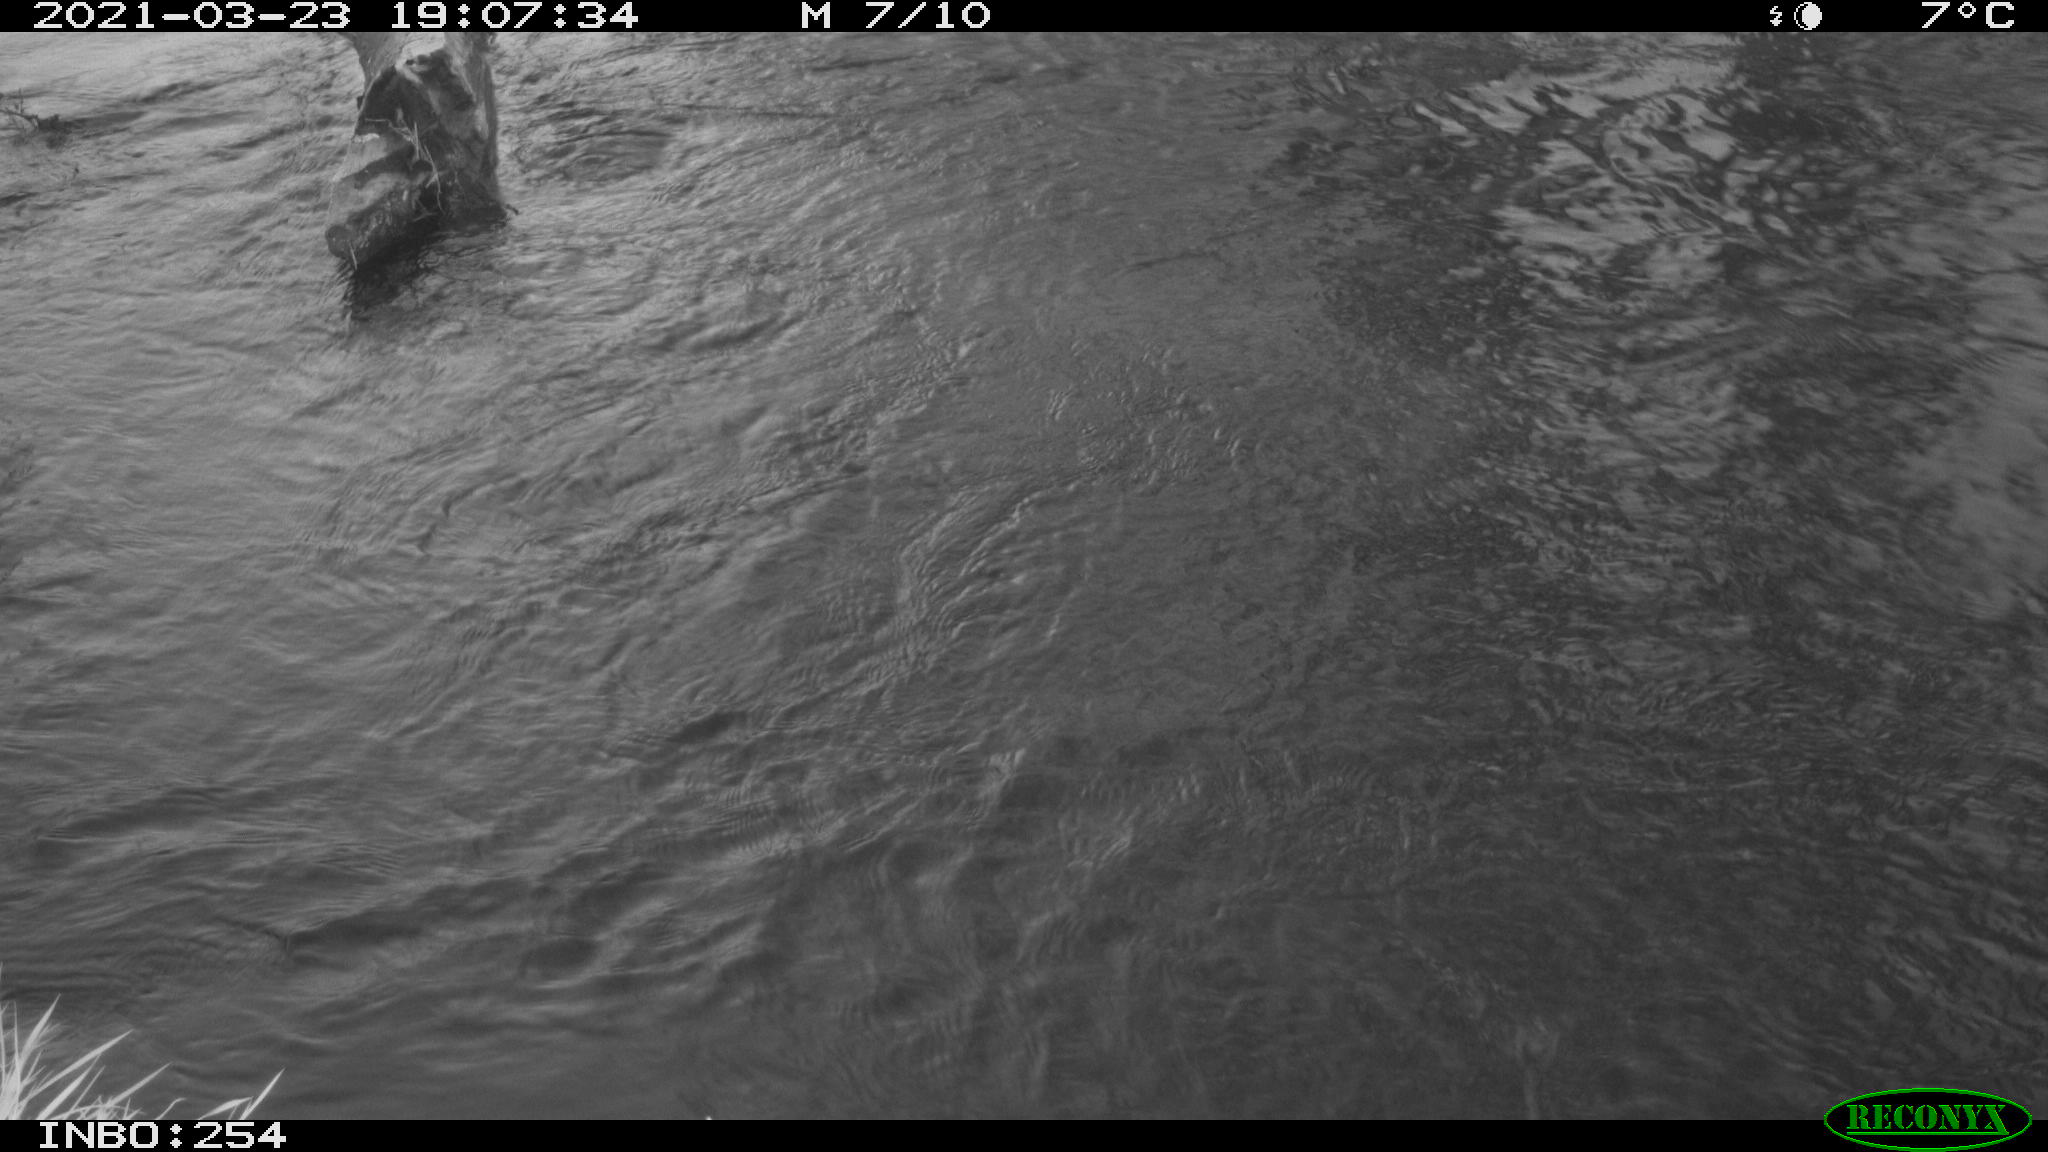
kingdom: Animalia
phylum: Chordata
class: Aves
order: Gruiformes
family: Rallidae
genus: Gallinula
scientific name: Gallinula chloropus
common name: Common moorhen
